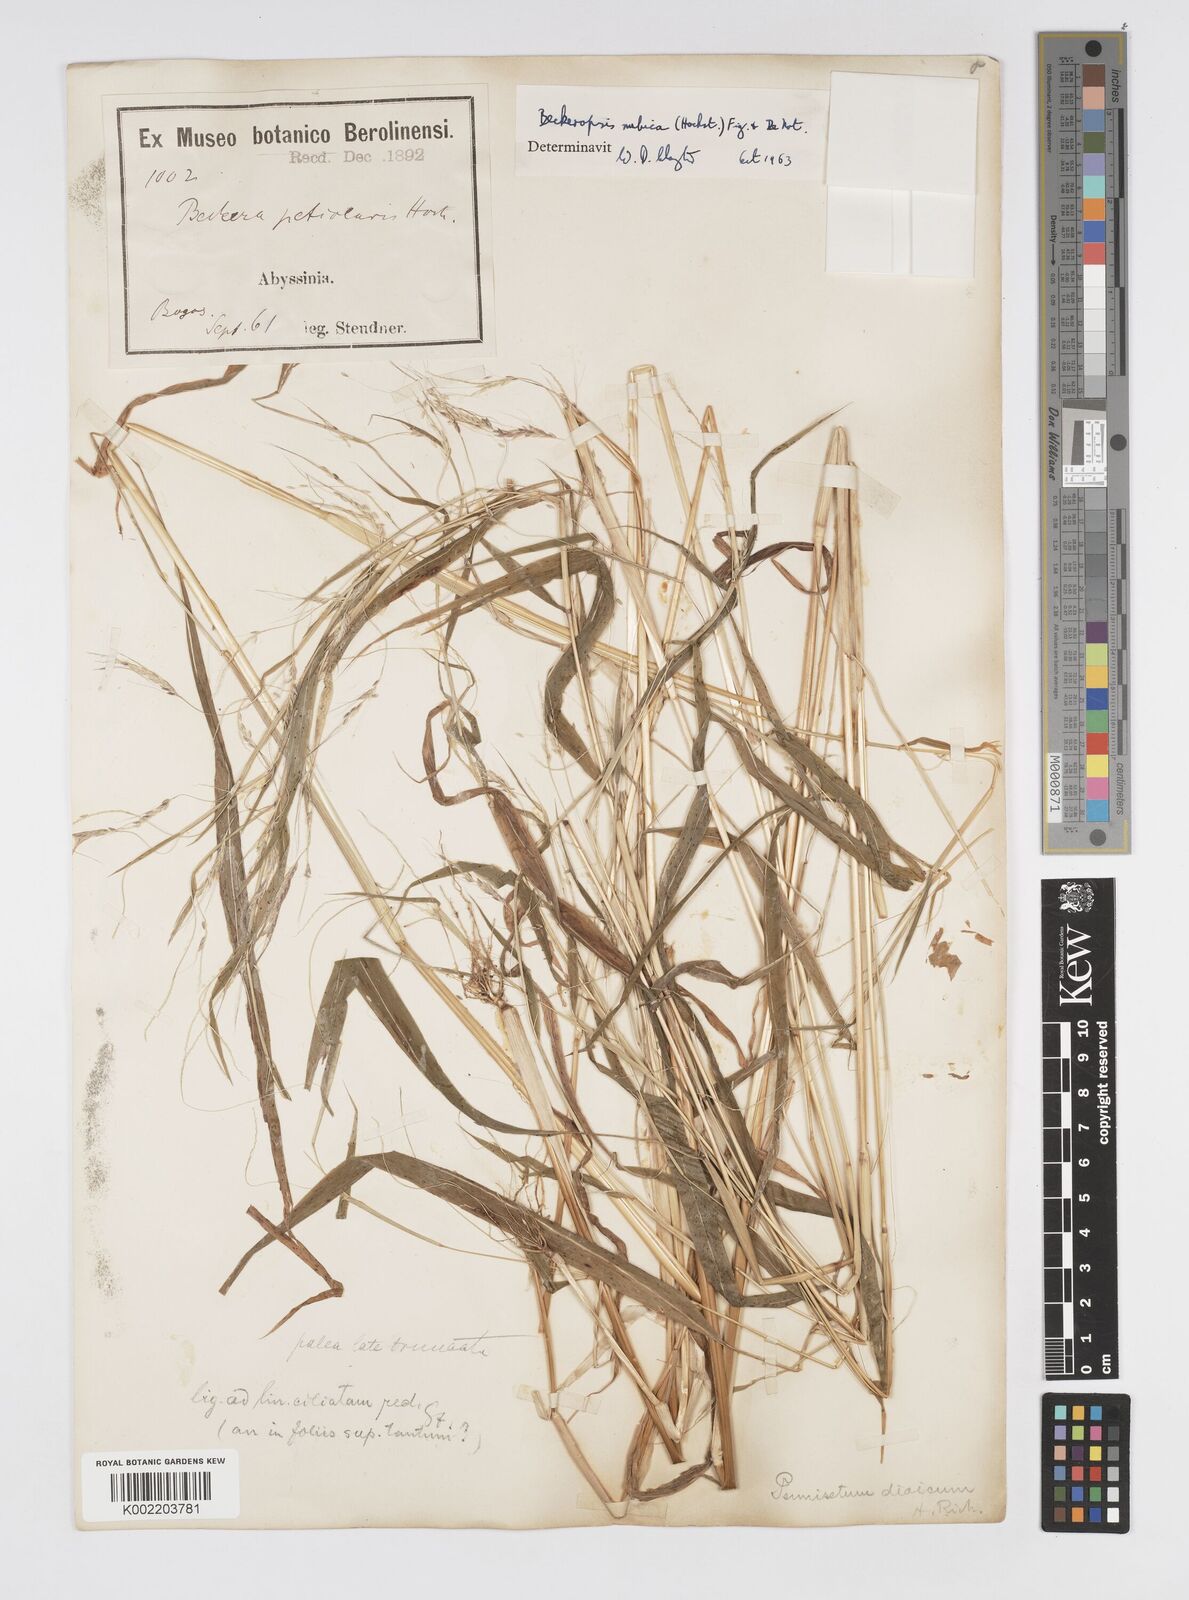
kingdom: Plantae
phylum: Tracheophyta
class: Liliopsida
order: Poales
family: Poaceae
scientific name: Poaceae
